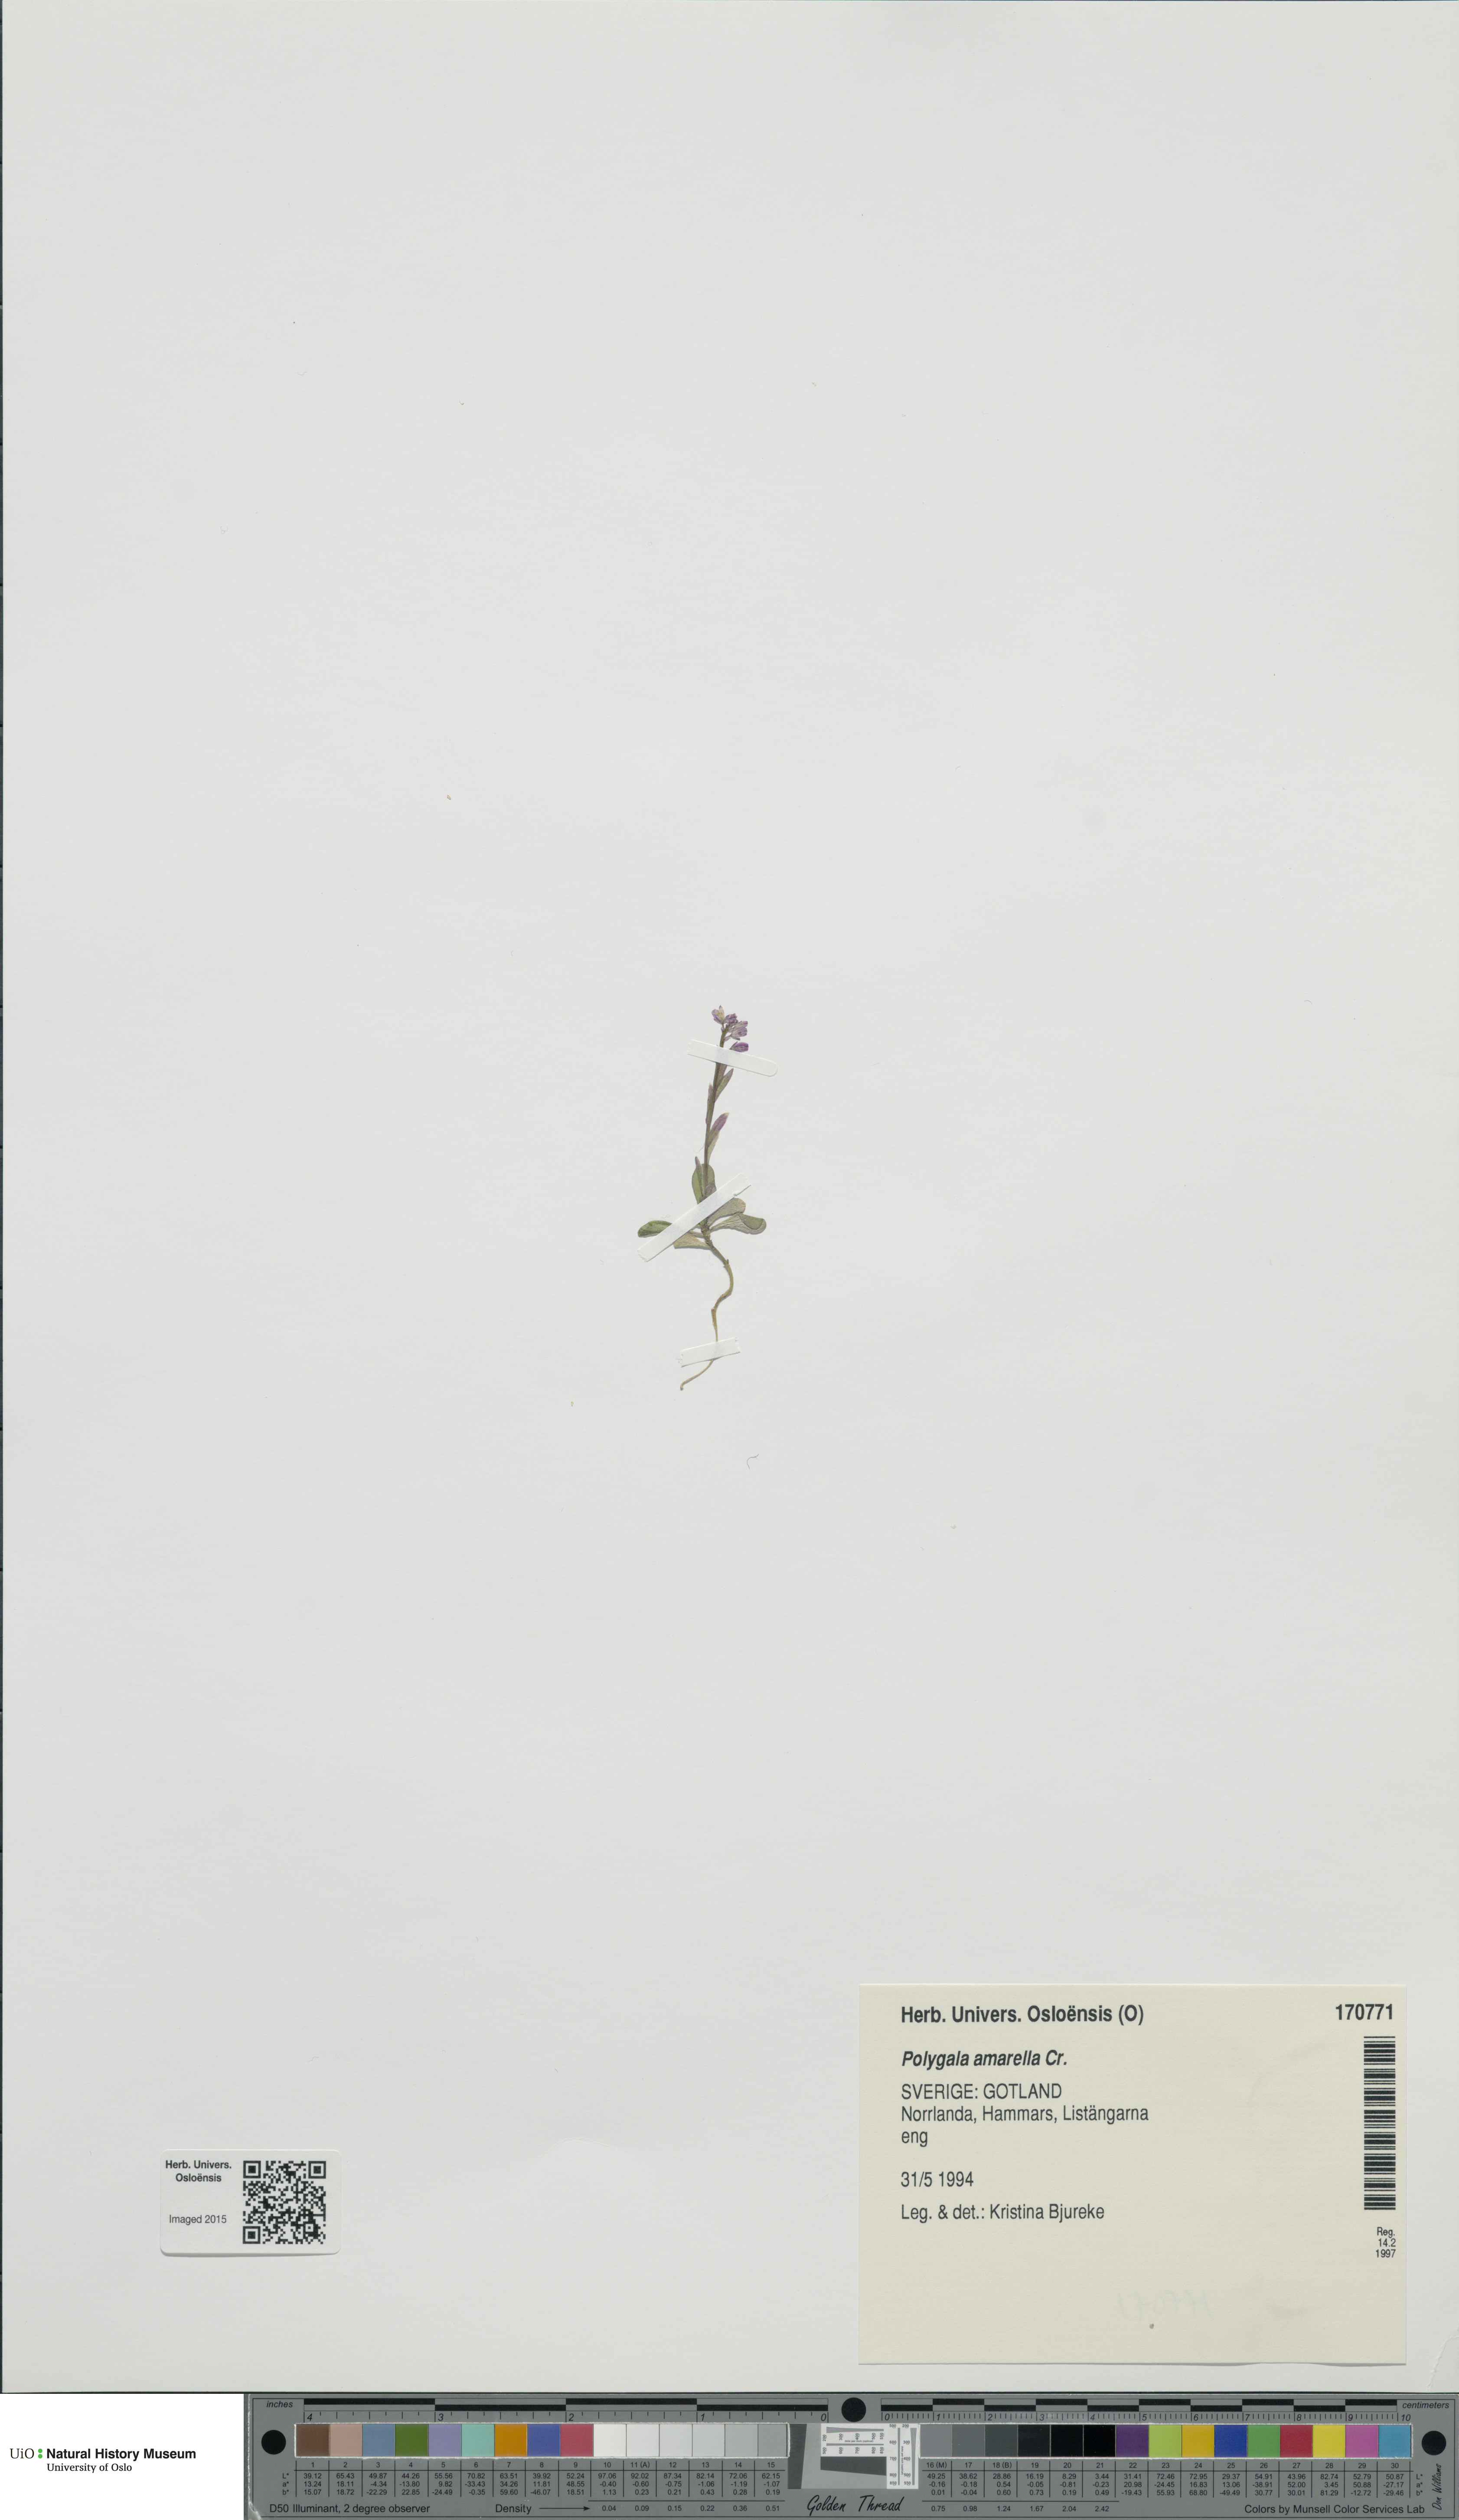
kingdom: Plantae
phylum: Tracheophyta
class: Magnoliopsida
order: Fabales
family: Polygalaceae
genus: Polygala
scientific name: Polygala amarella
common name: Dwarf milkwort
